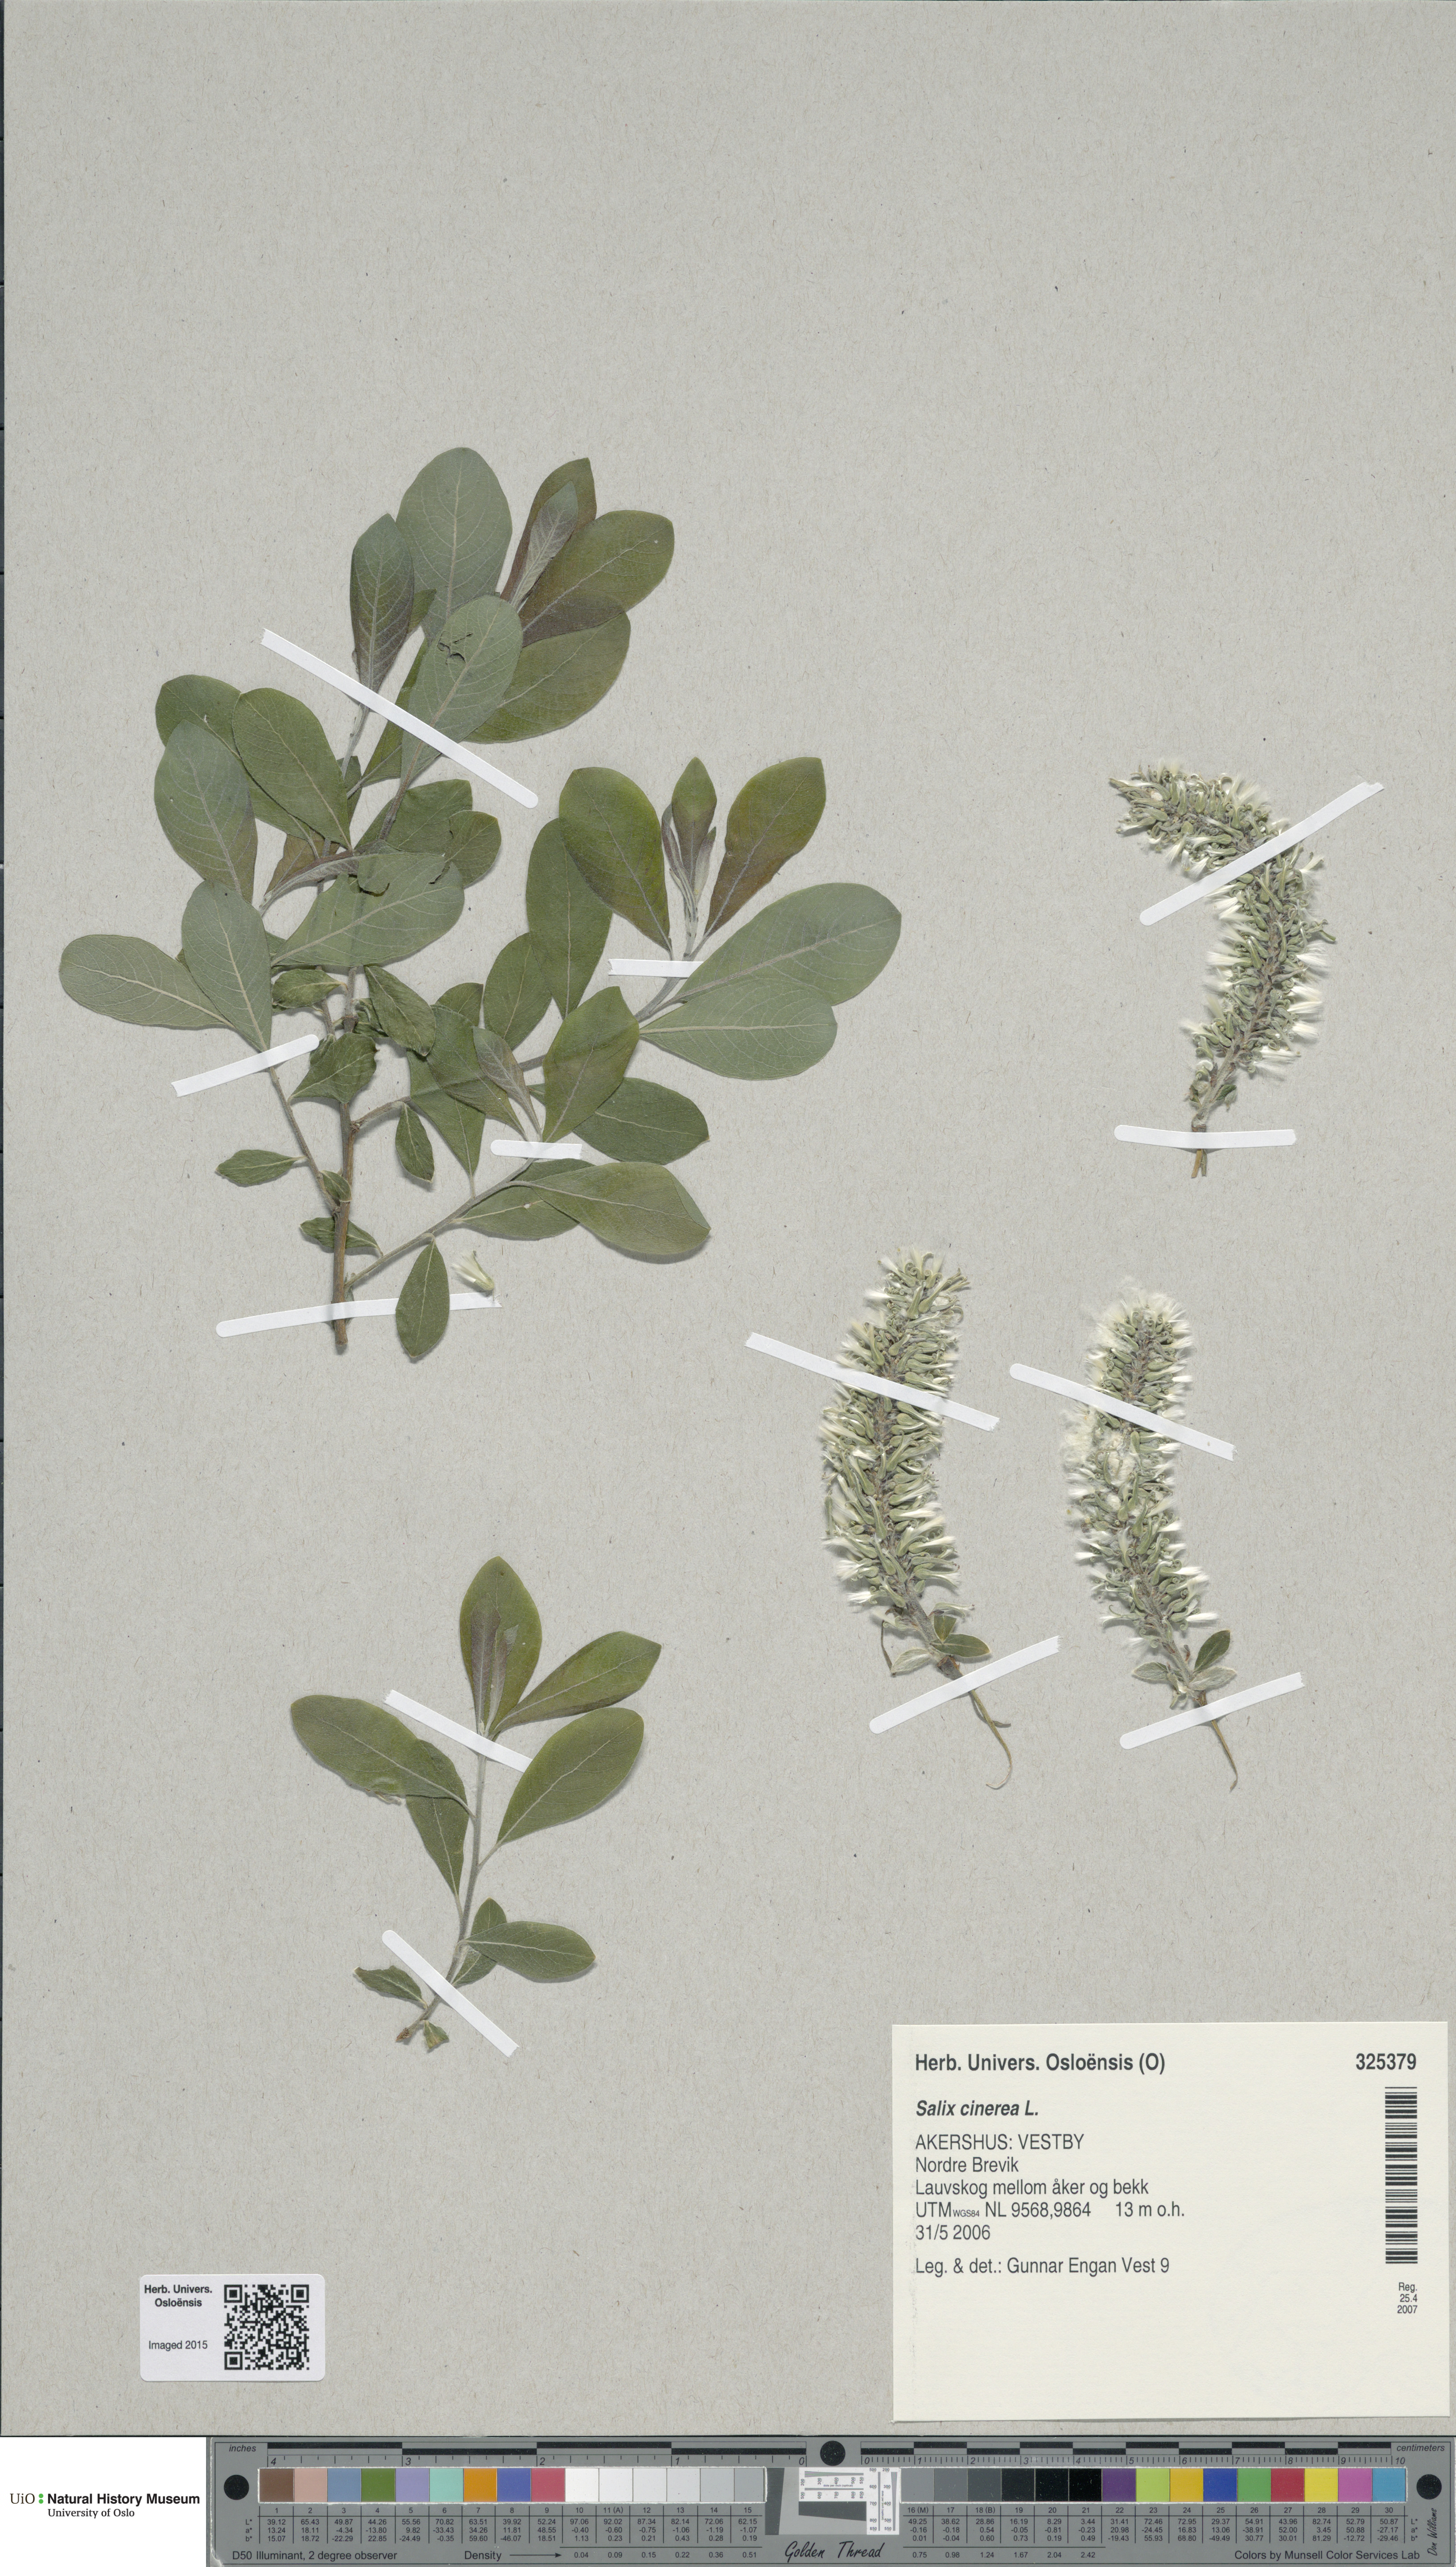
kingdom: Plantae
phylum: Tracheophyta
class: Magnoliopsida
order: Malpighiales
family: Salicaceae
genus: Salix
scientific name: Salix cinerea
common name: Common sallow
